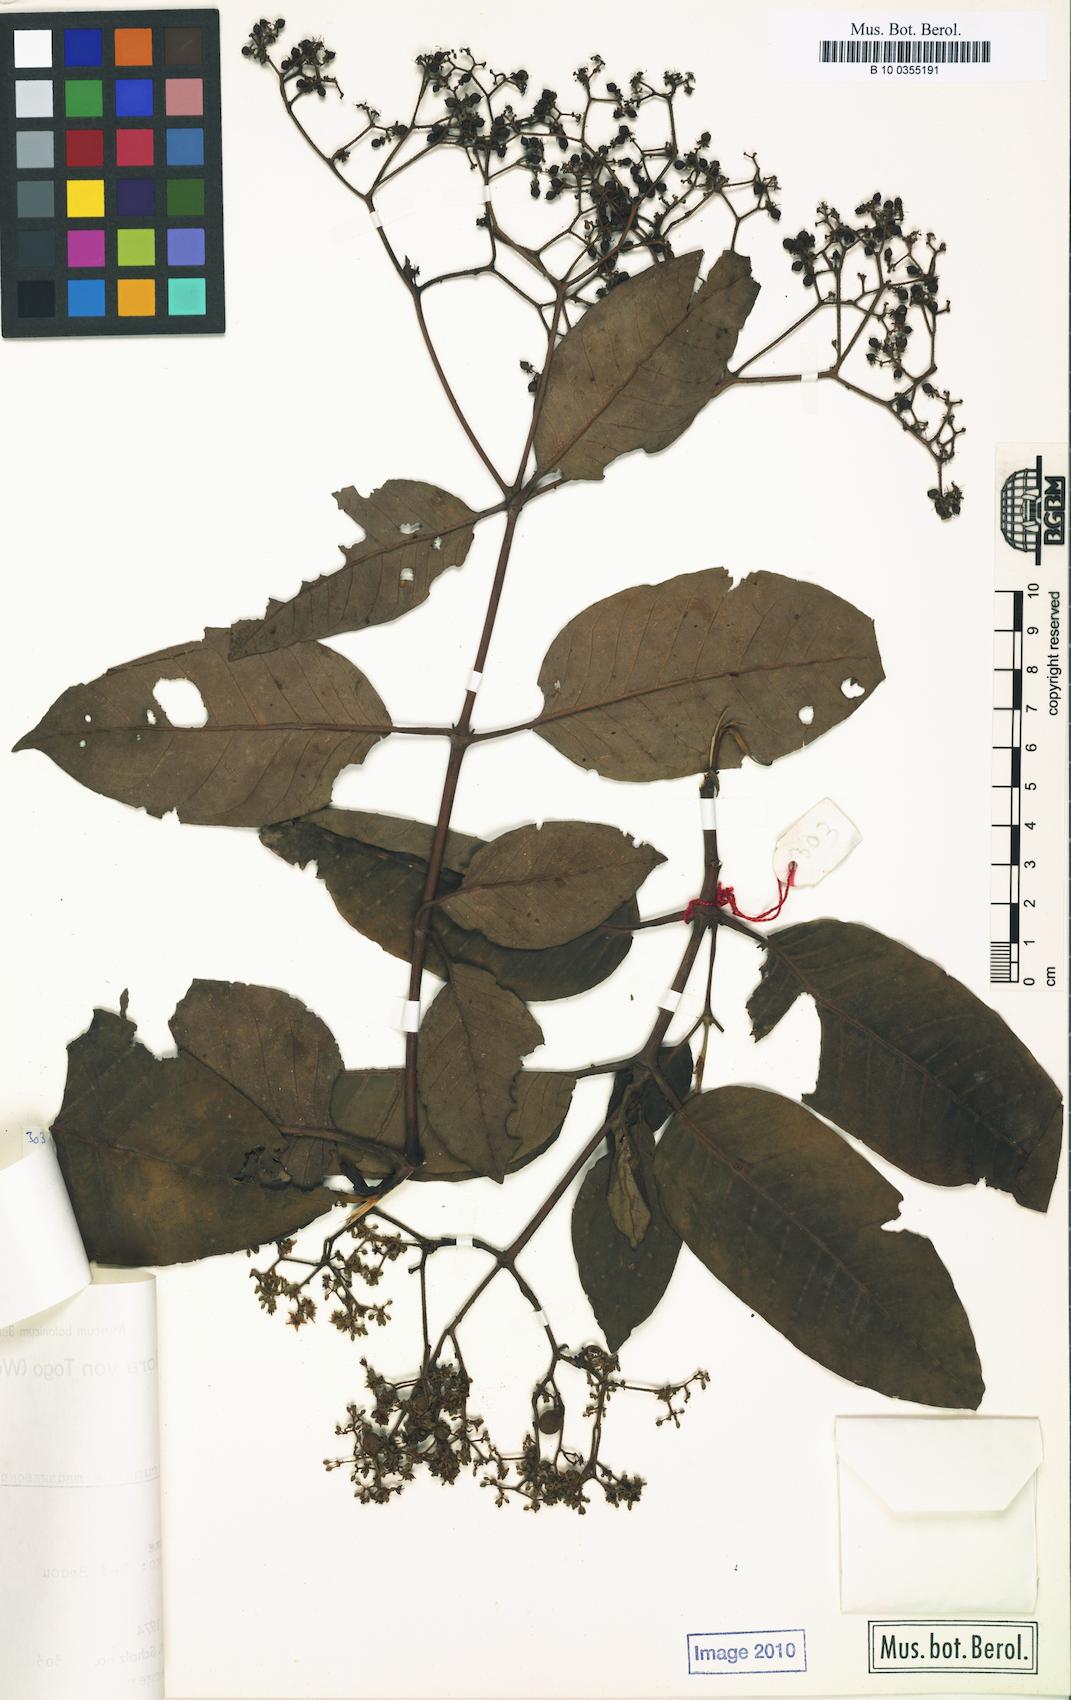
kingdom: Plantae
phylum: Tracheophyta
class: Magnoliopsida
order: Malpighiales
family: Hypericaceae
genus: Harungana
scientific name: Harungana madagascariensis
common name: Orange milktree
